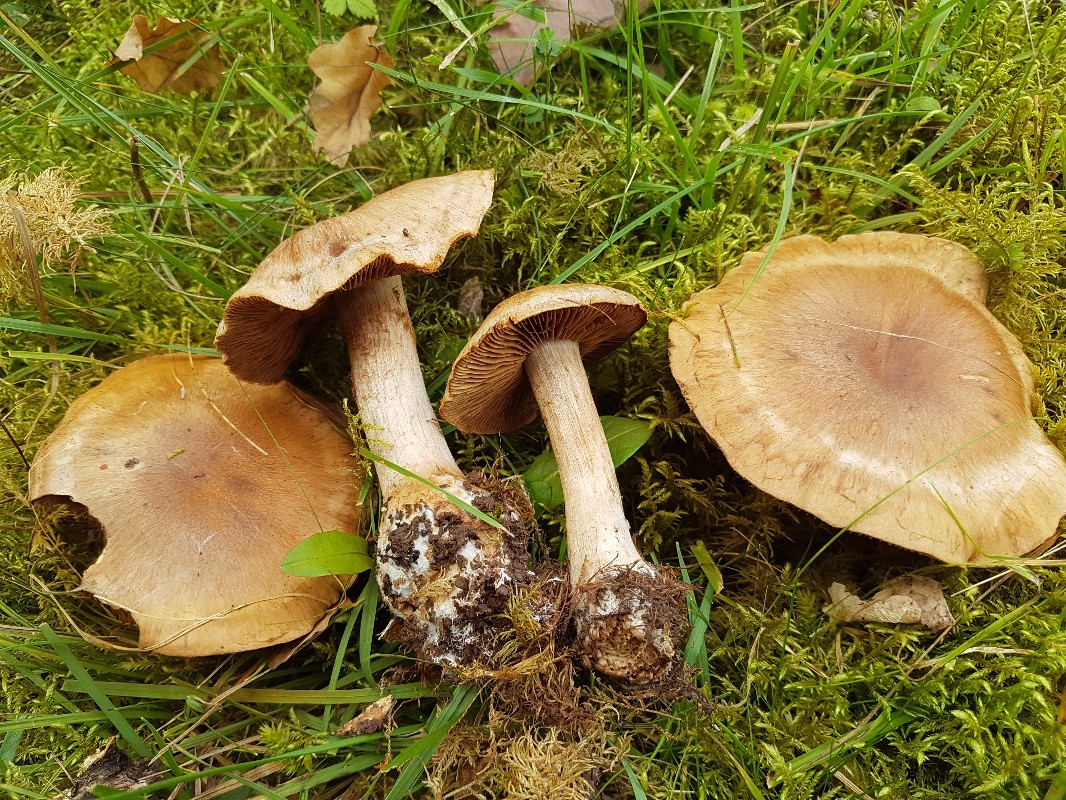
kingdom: Fungi
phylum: Basidiomycota
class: Agaricomycetes
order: Agaricales
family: Cortinariaceae
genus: Cortinarius
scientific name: Cortinarius suillonigrescens
